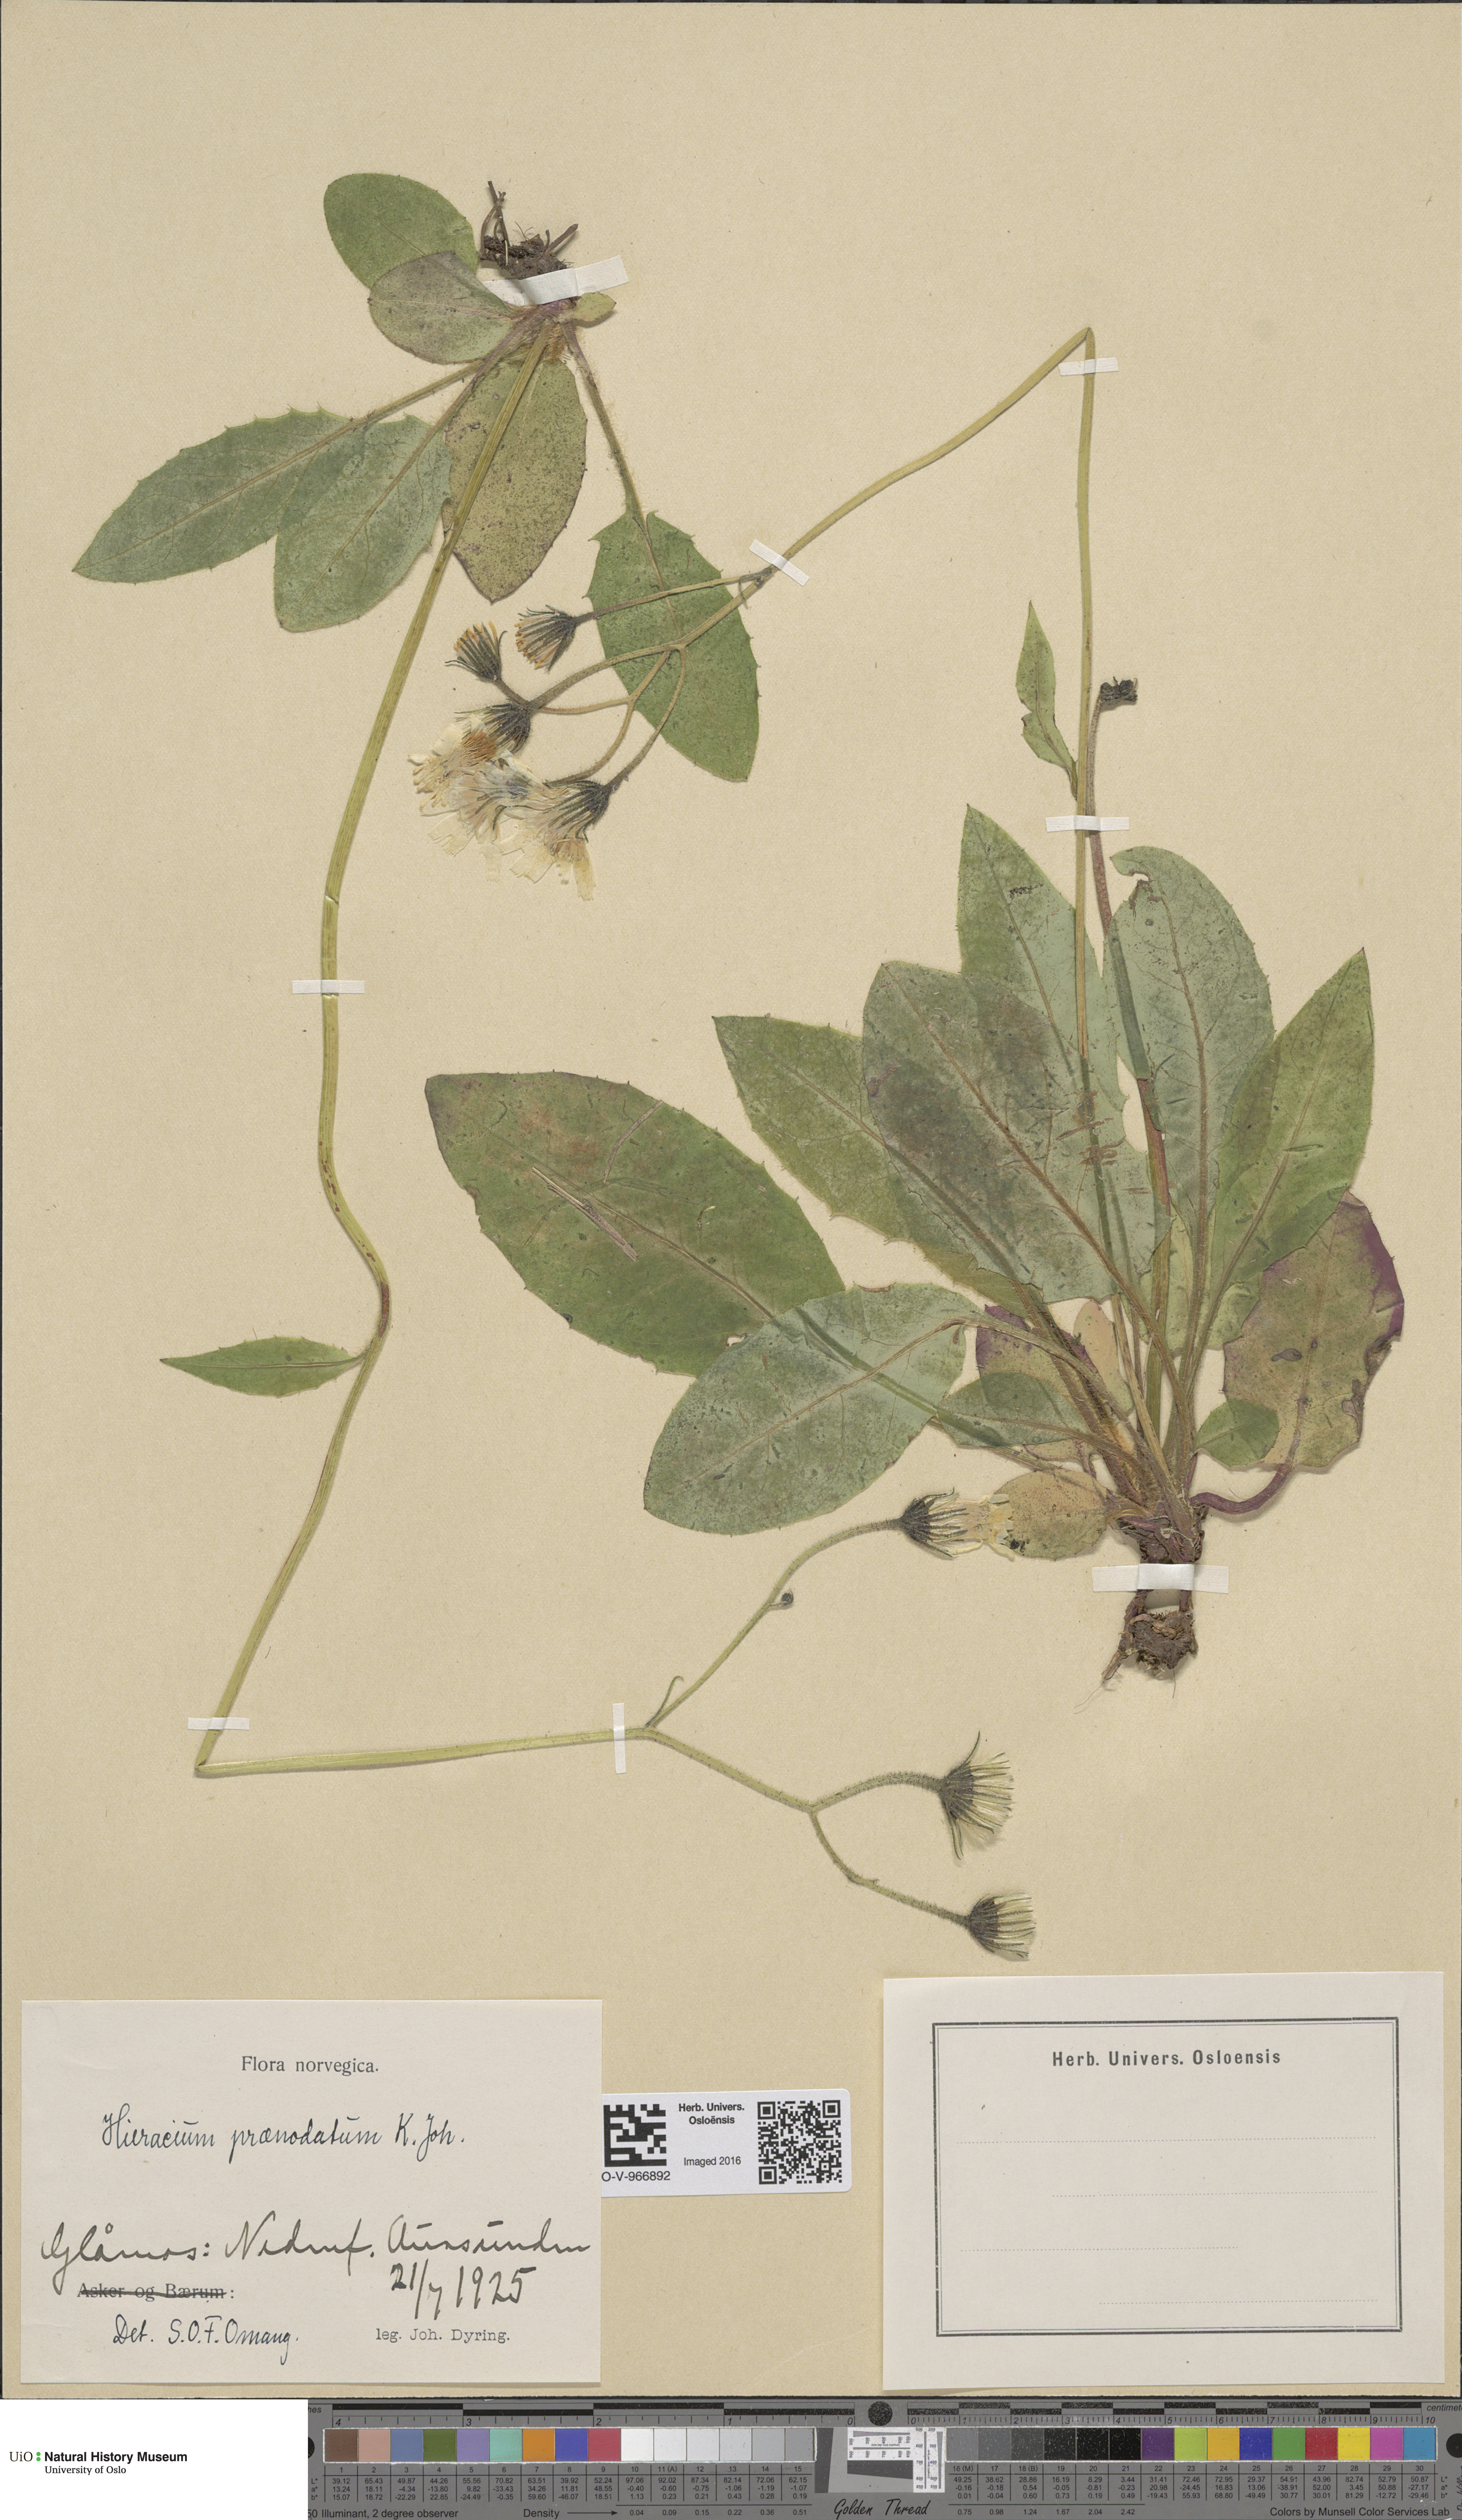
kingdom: Plantae
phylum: Tracheophyta
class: Magnoliopsida
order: Asterales
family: Asteraceae
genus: Hieracium
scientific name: Hieracium praenodatum
